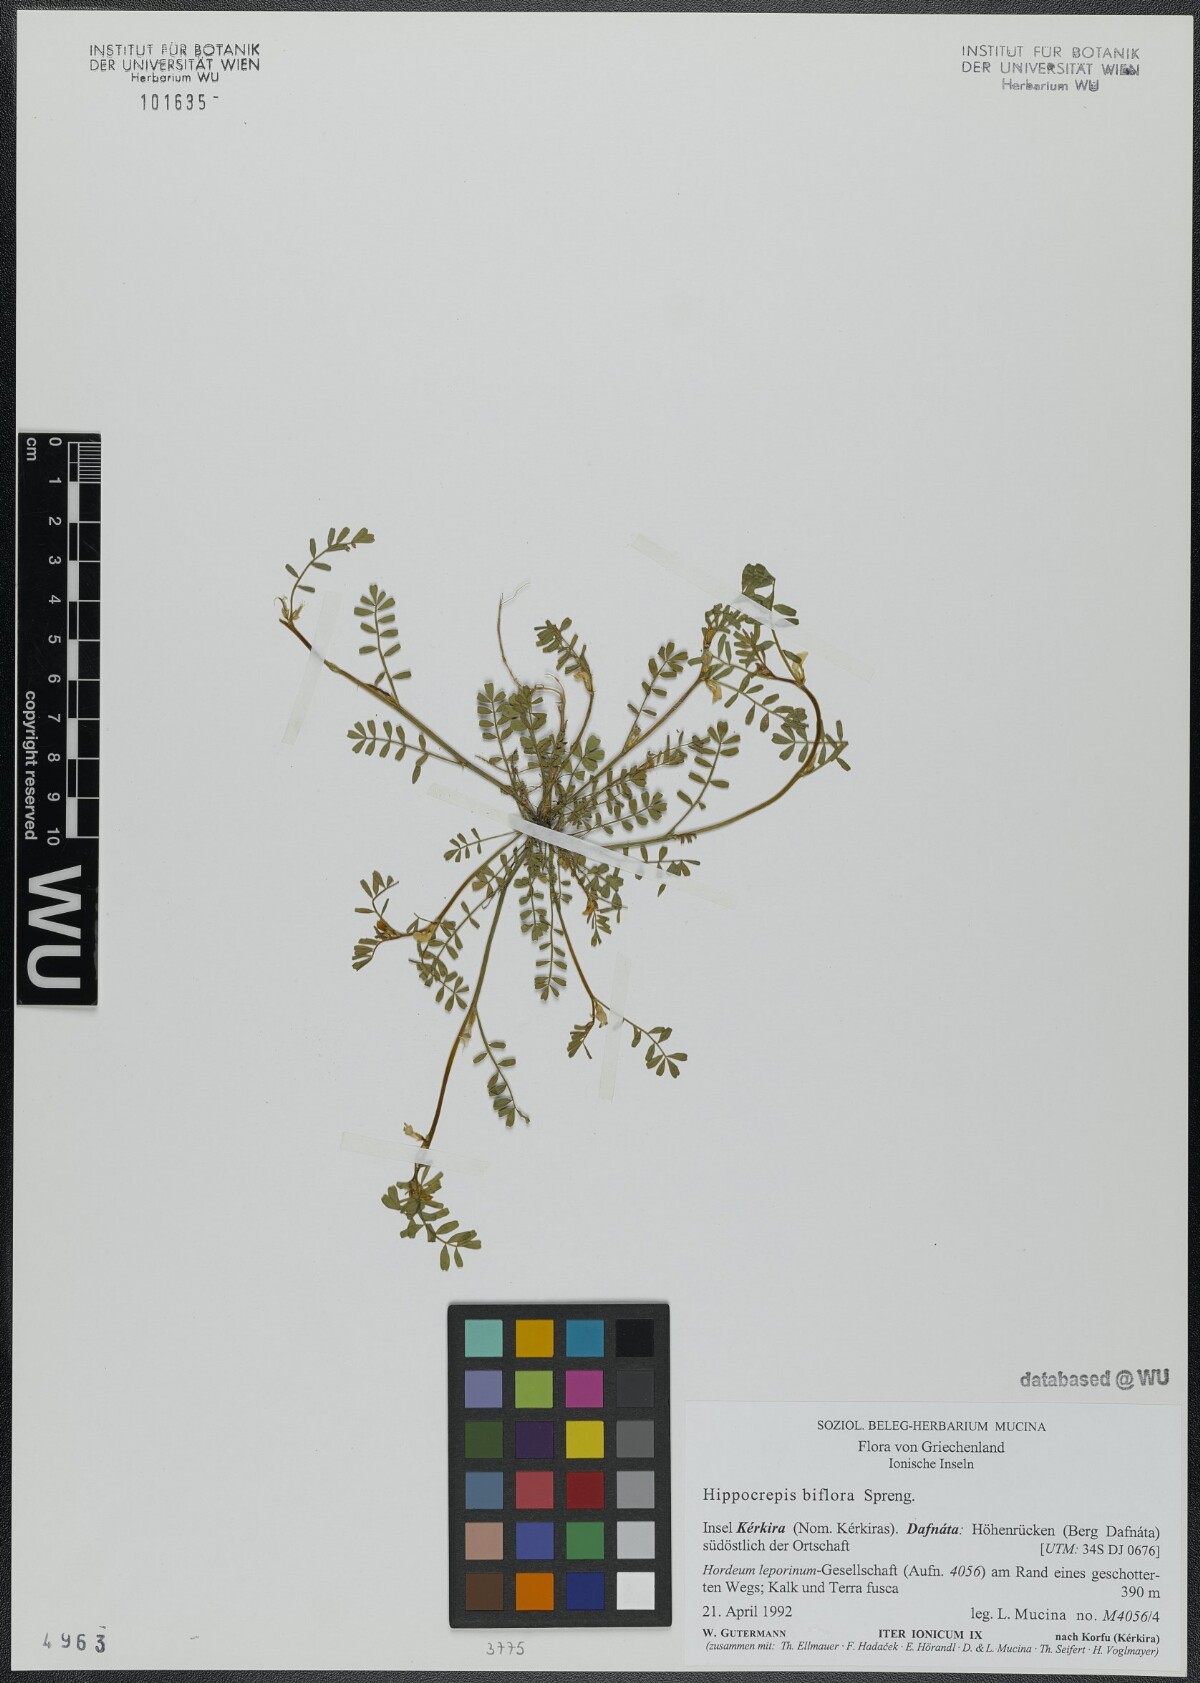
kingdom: Plantae
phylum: Tracheophyta
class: Magnoliopsida
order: Fabales
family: Fabaceae
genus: Hippocrepis
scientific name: Hippocrepis biflora
